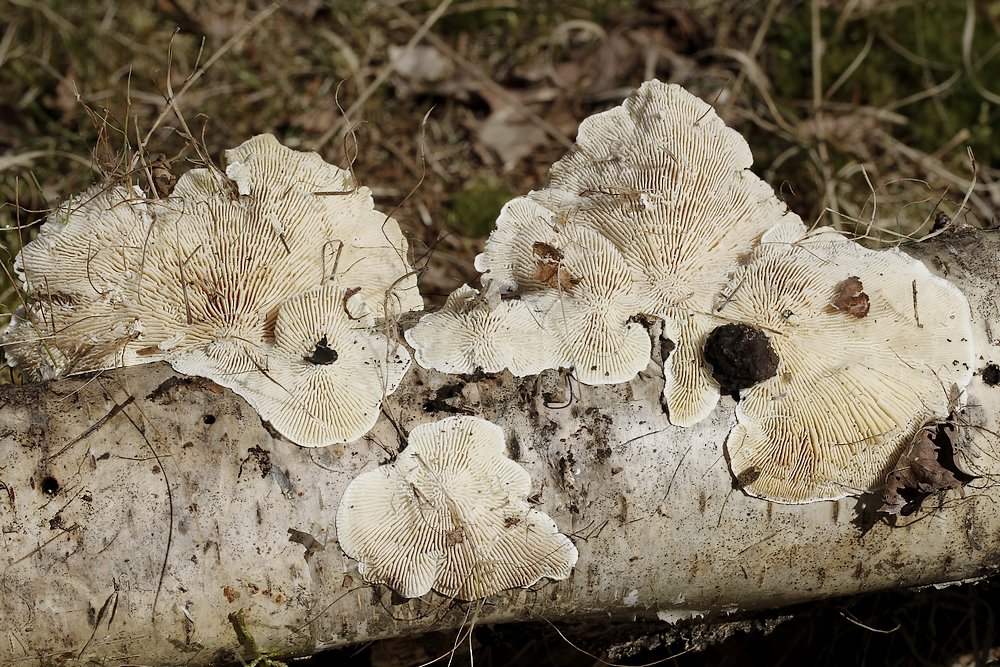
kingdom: Fungi
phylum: Basidiomycota
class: Agaricomycetes
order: Polyporales
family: Polyporaceae
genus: Lenzites
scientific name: Lenzites betulinus
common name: birke-læderporesvamp
